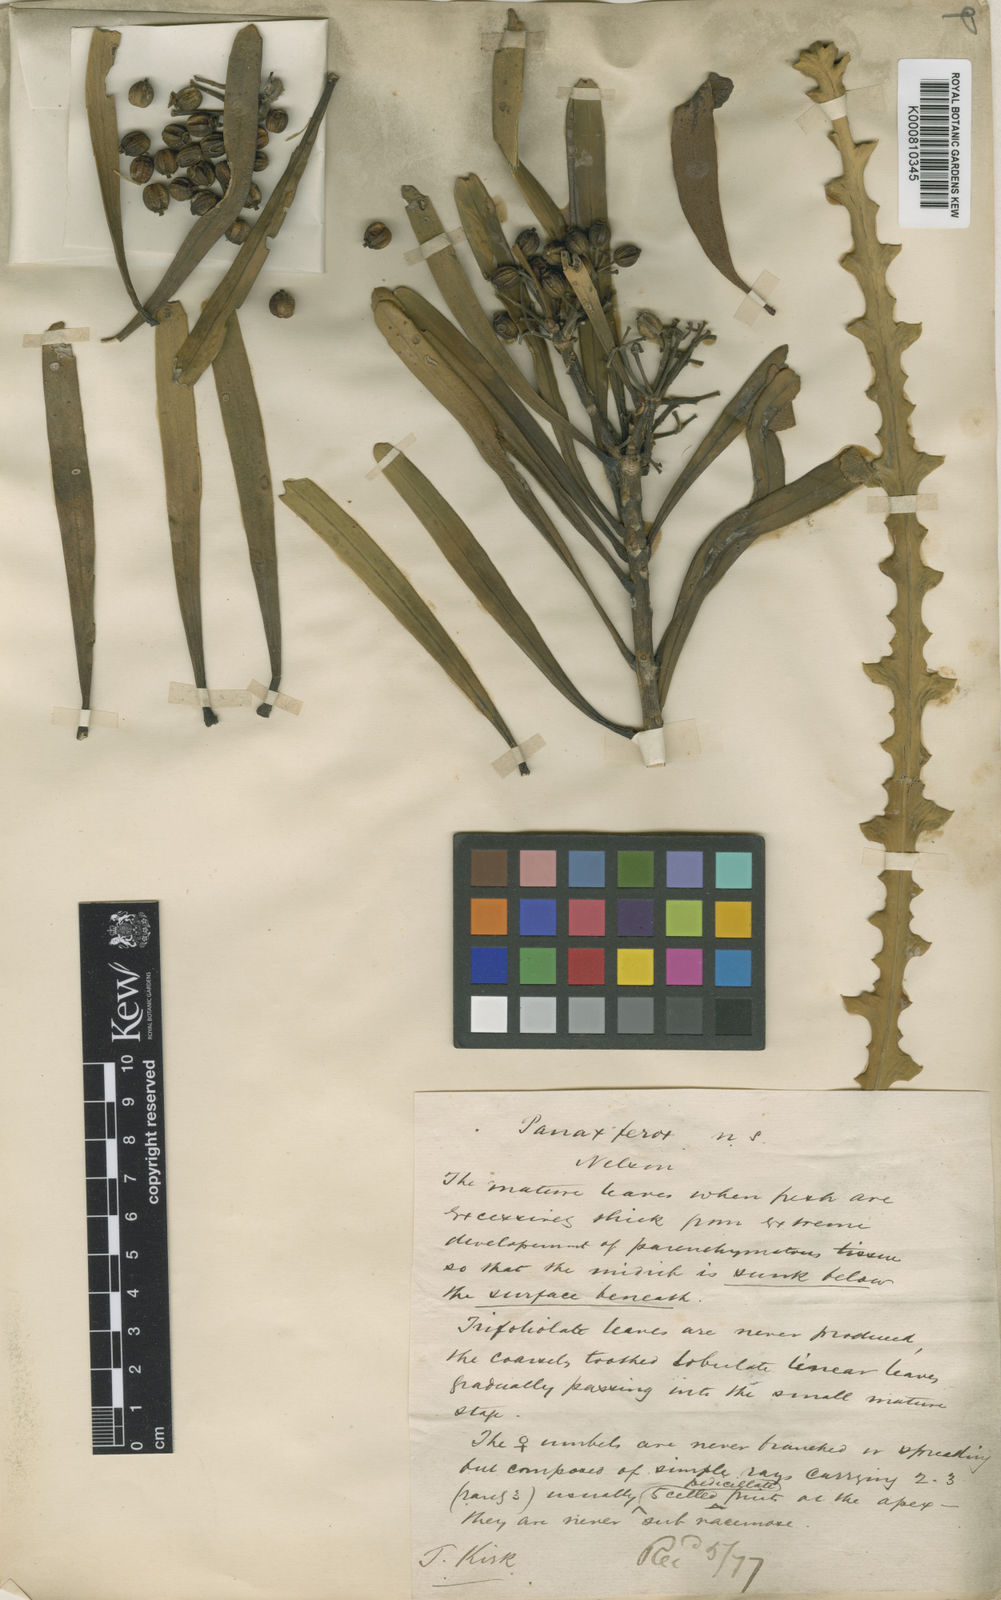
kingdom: Plantae
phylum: Tracheophyta
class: Magnoliopsida
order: Apiales
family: Araliaceae
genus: Pseudopanax
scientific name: Pseudopanax ferox
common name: Fierce lancewood
